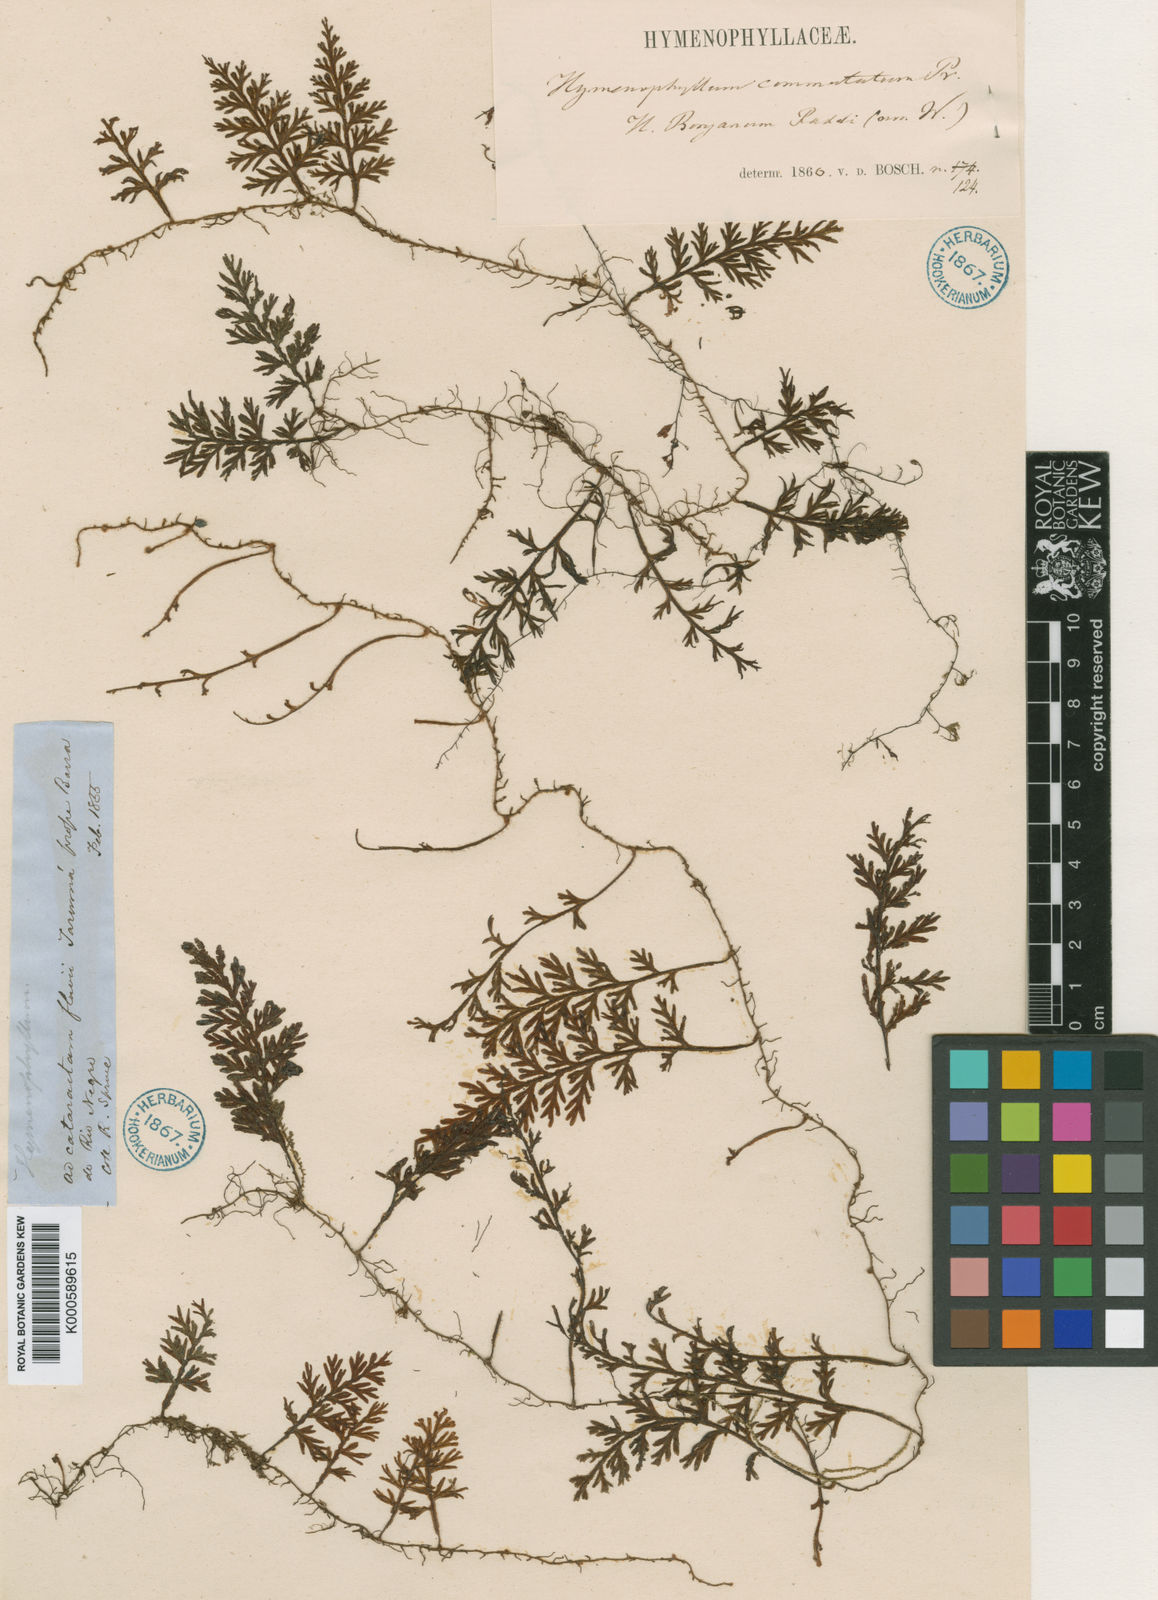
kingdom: Plantae
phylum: Tracheophyta
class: Polypodiopsida
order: Hymenophyllales
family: Hymenophyllaceae
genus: Hymenophyllum
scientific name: Hymenophyllum hirsutum
